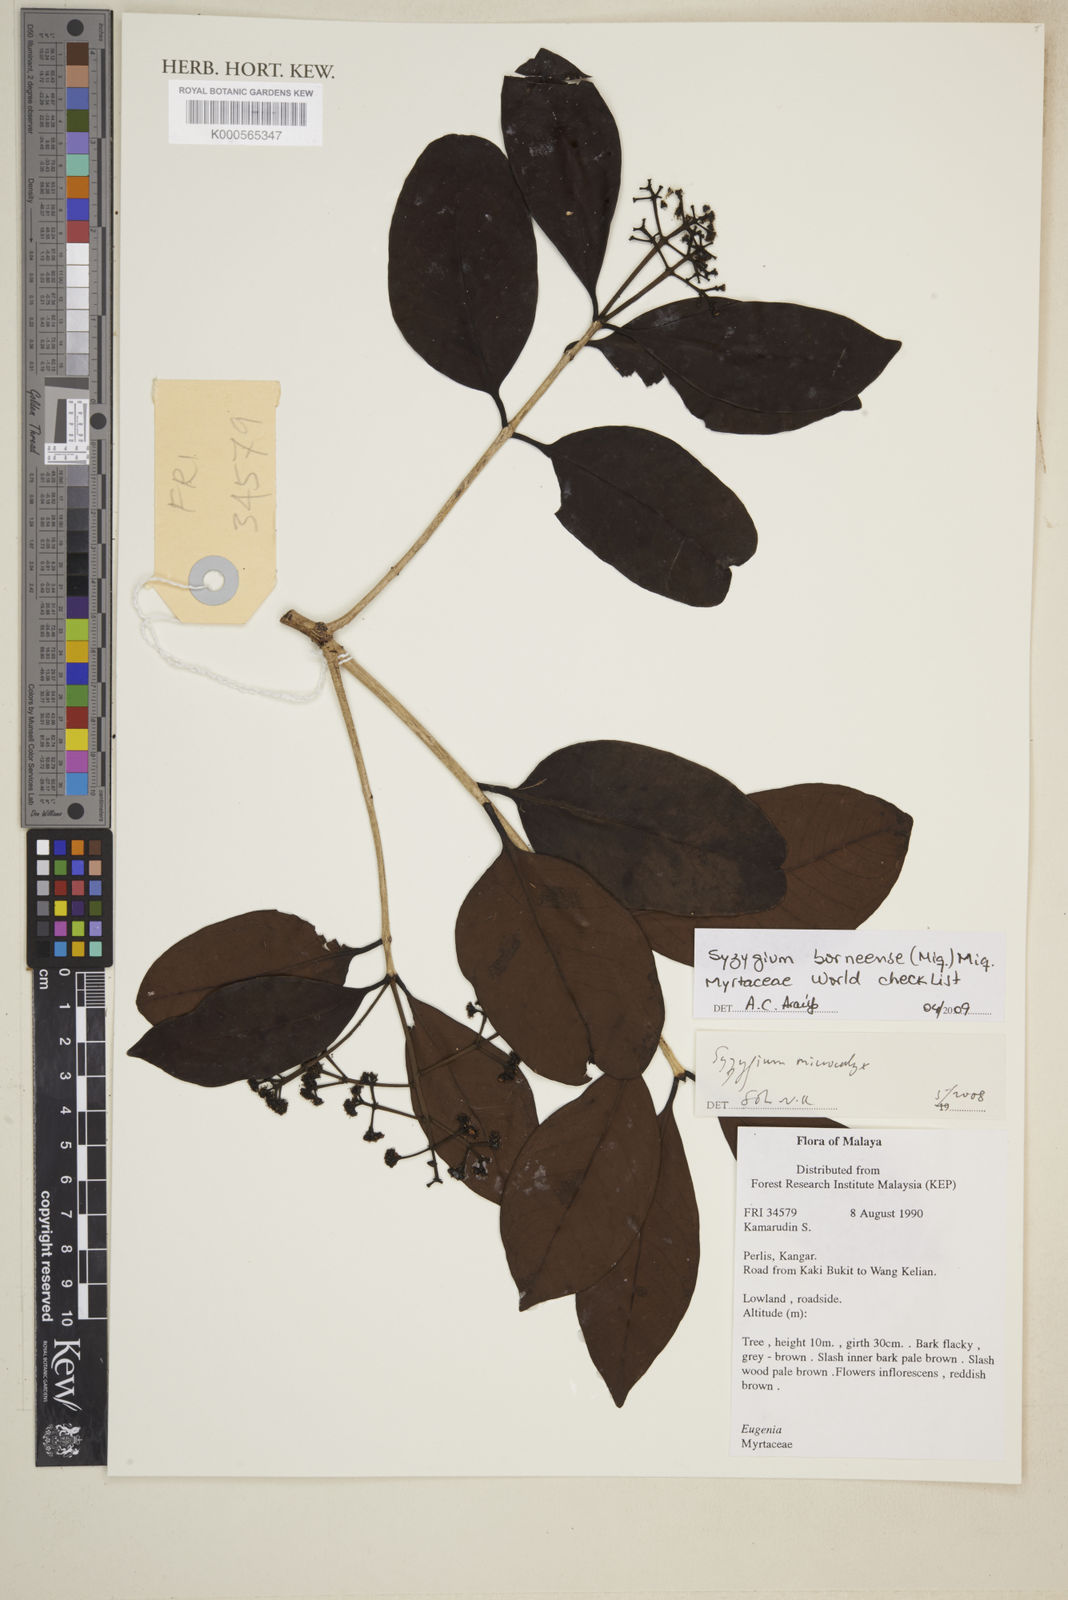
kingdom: Plantae
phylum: Tracheophyta
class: Magnoliopsida
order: Myrtales
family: Myrtaceae
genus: Syzygium
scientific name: Syzygium borneense
